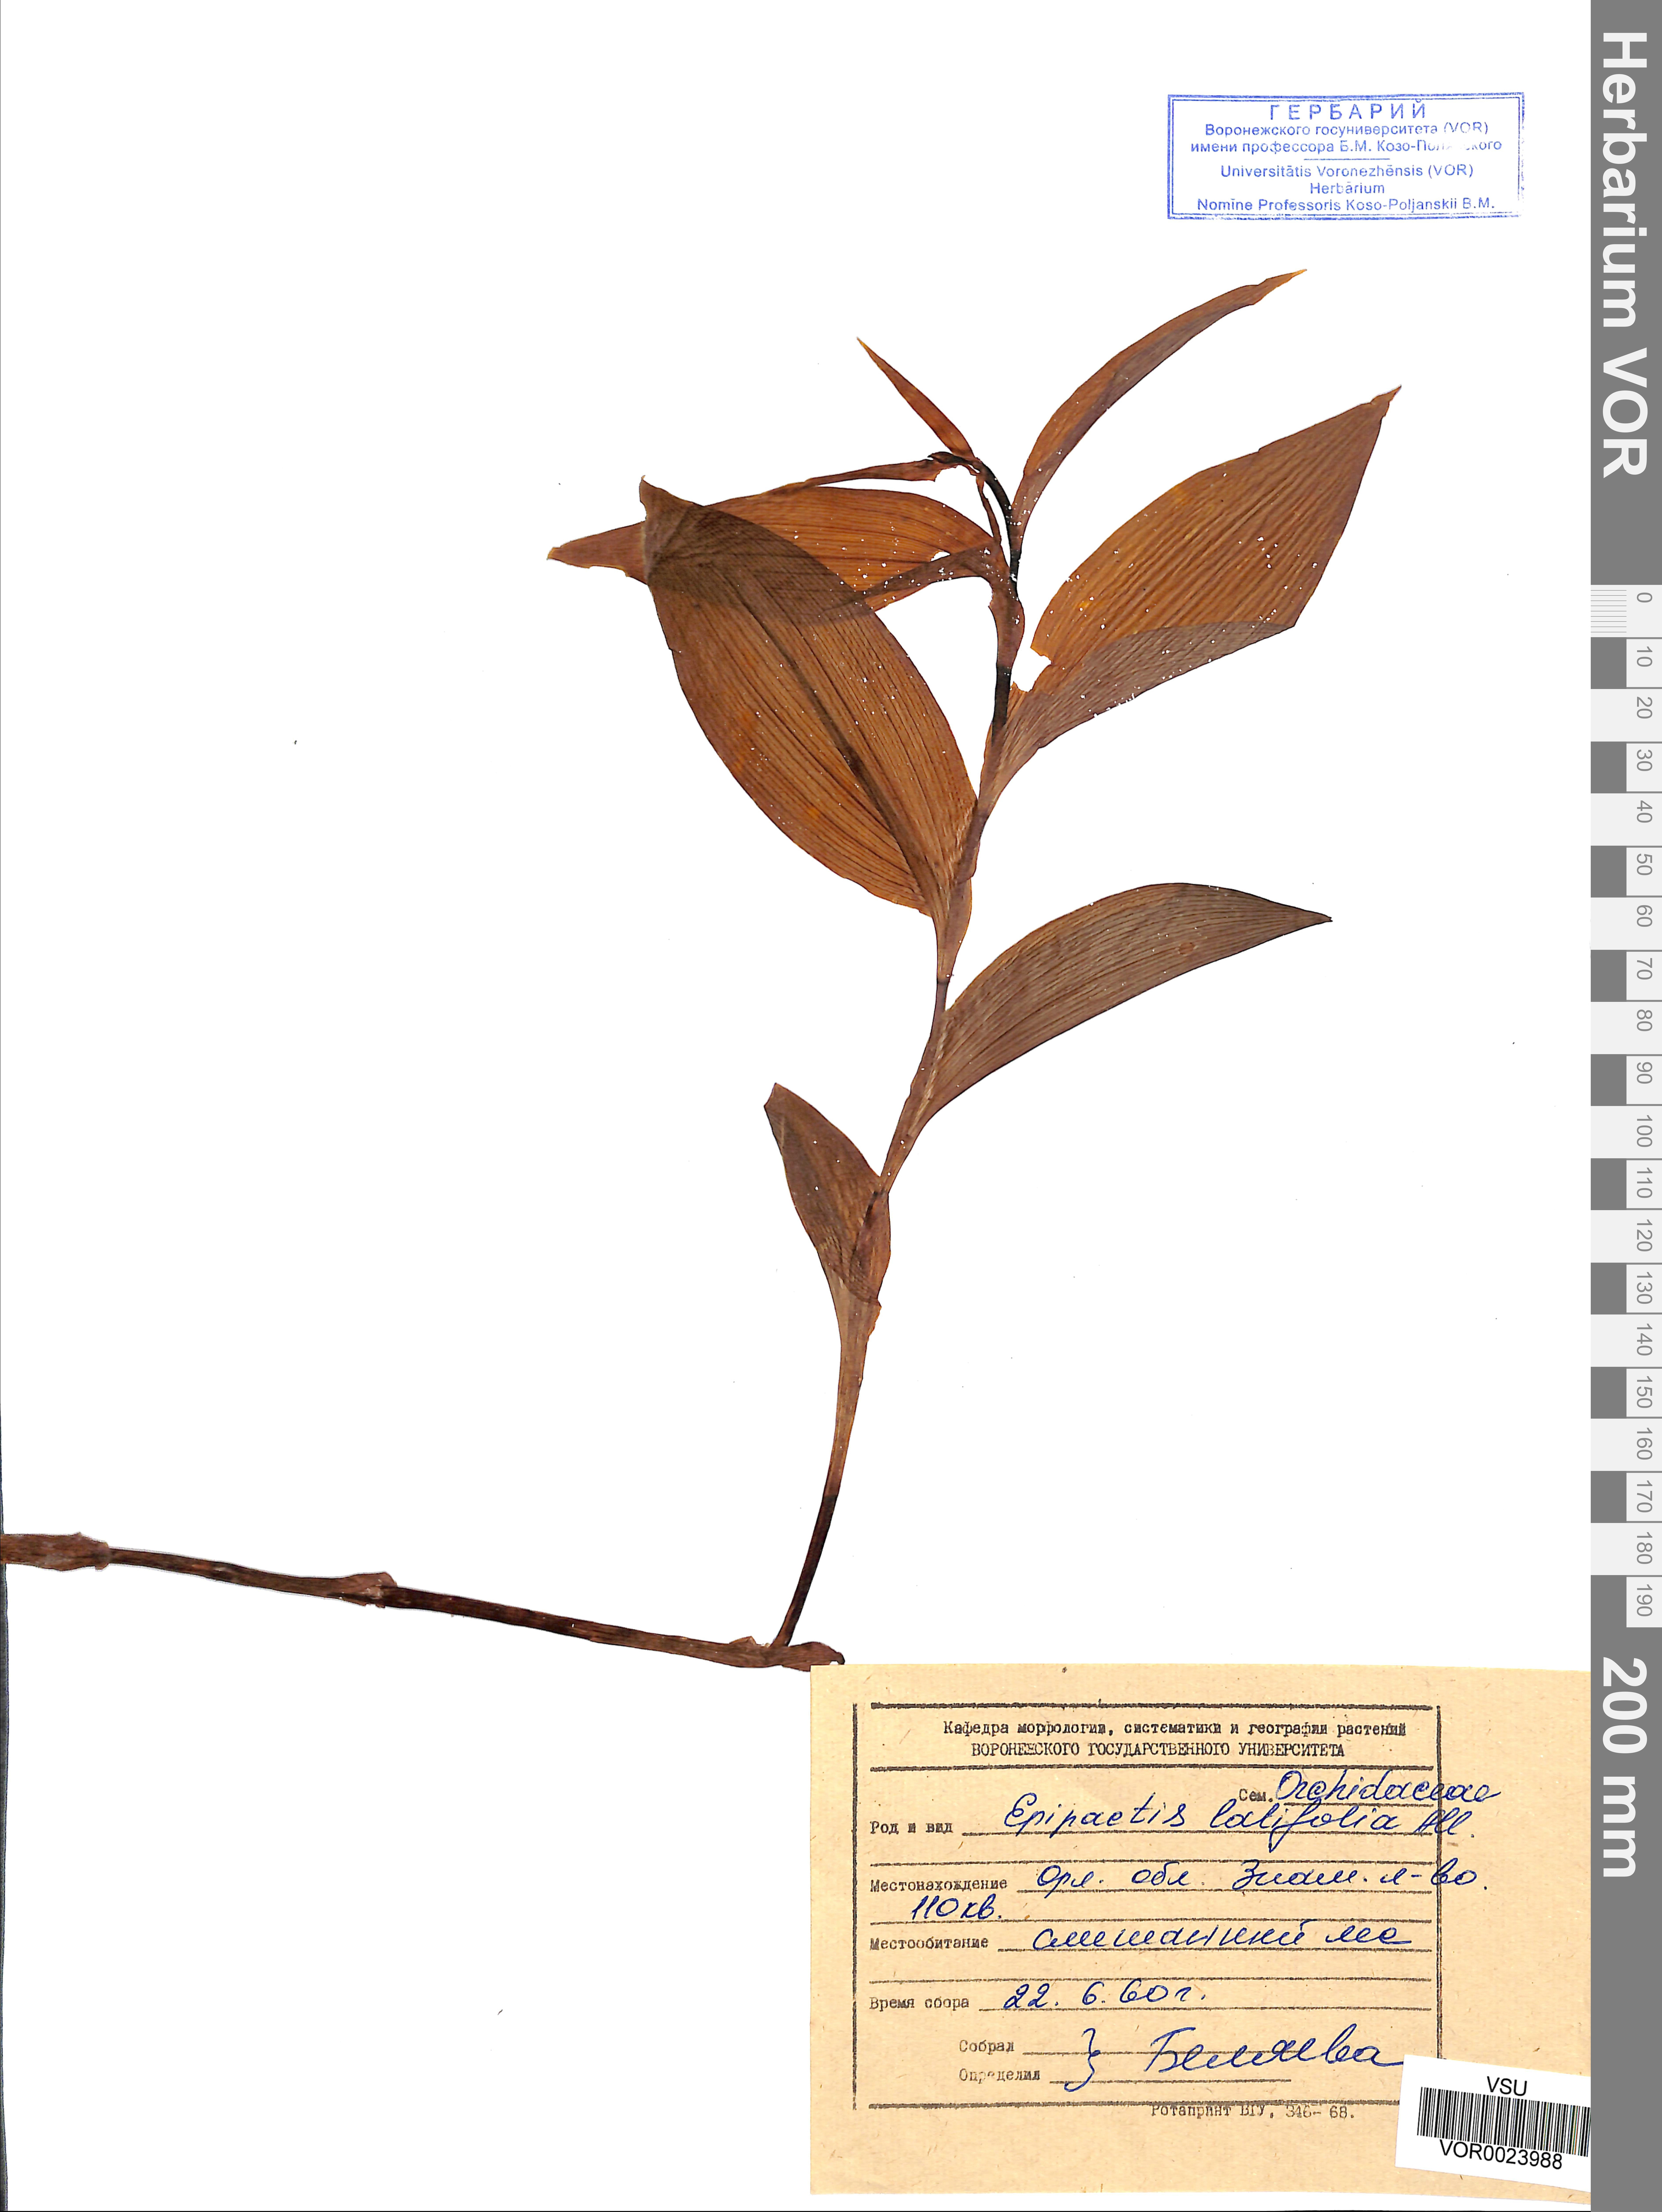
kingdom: Plantae
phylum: Tracheophyta
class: Liliopsida
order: Asparagales
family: Orchidaceae
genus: Epipactis
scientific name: Epipactis helleborine
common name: Broad-leaved helleborine
